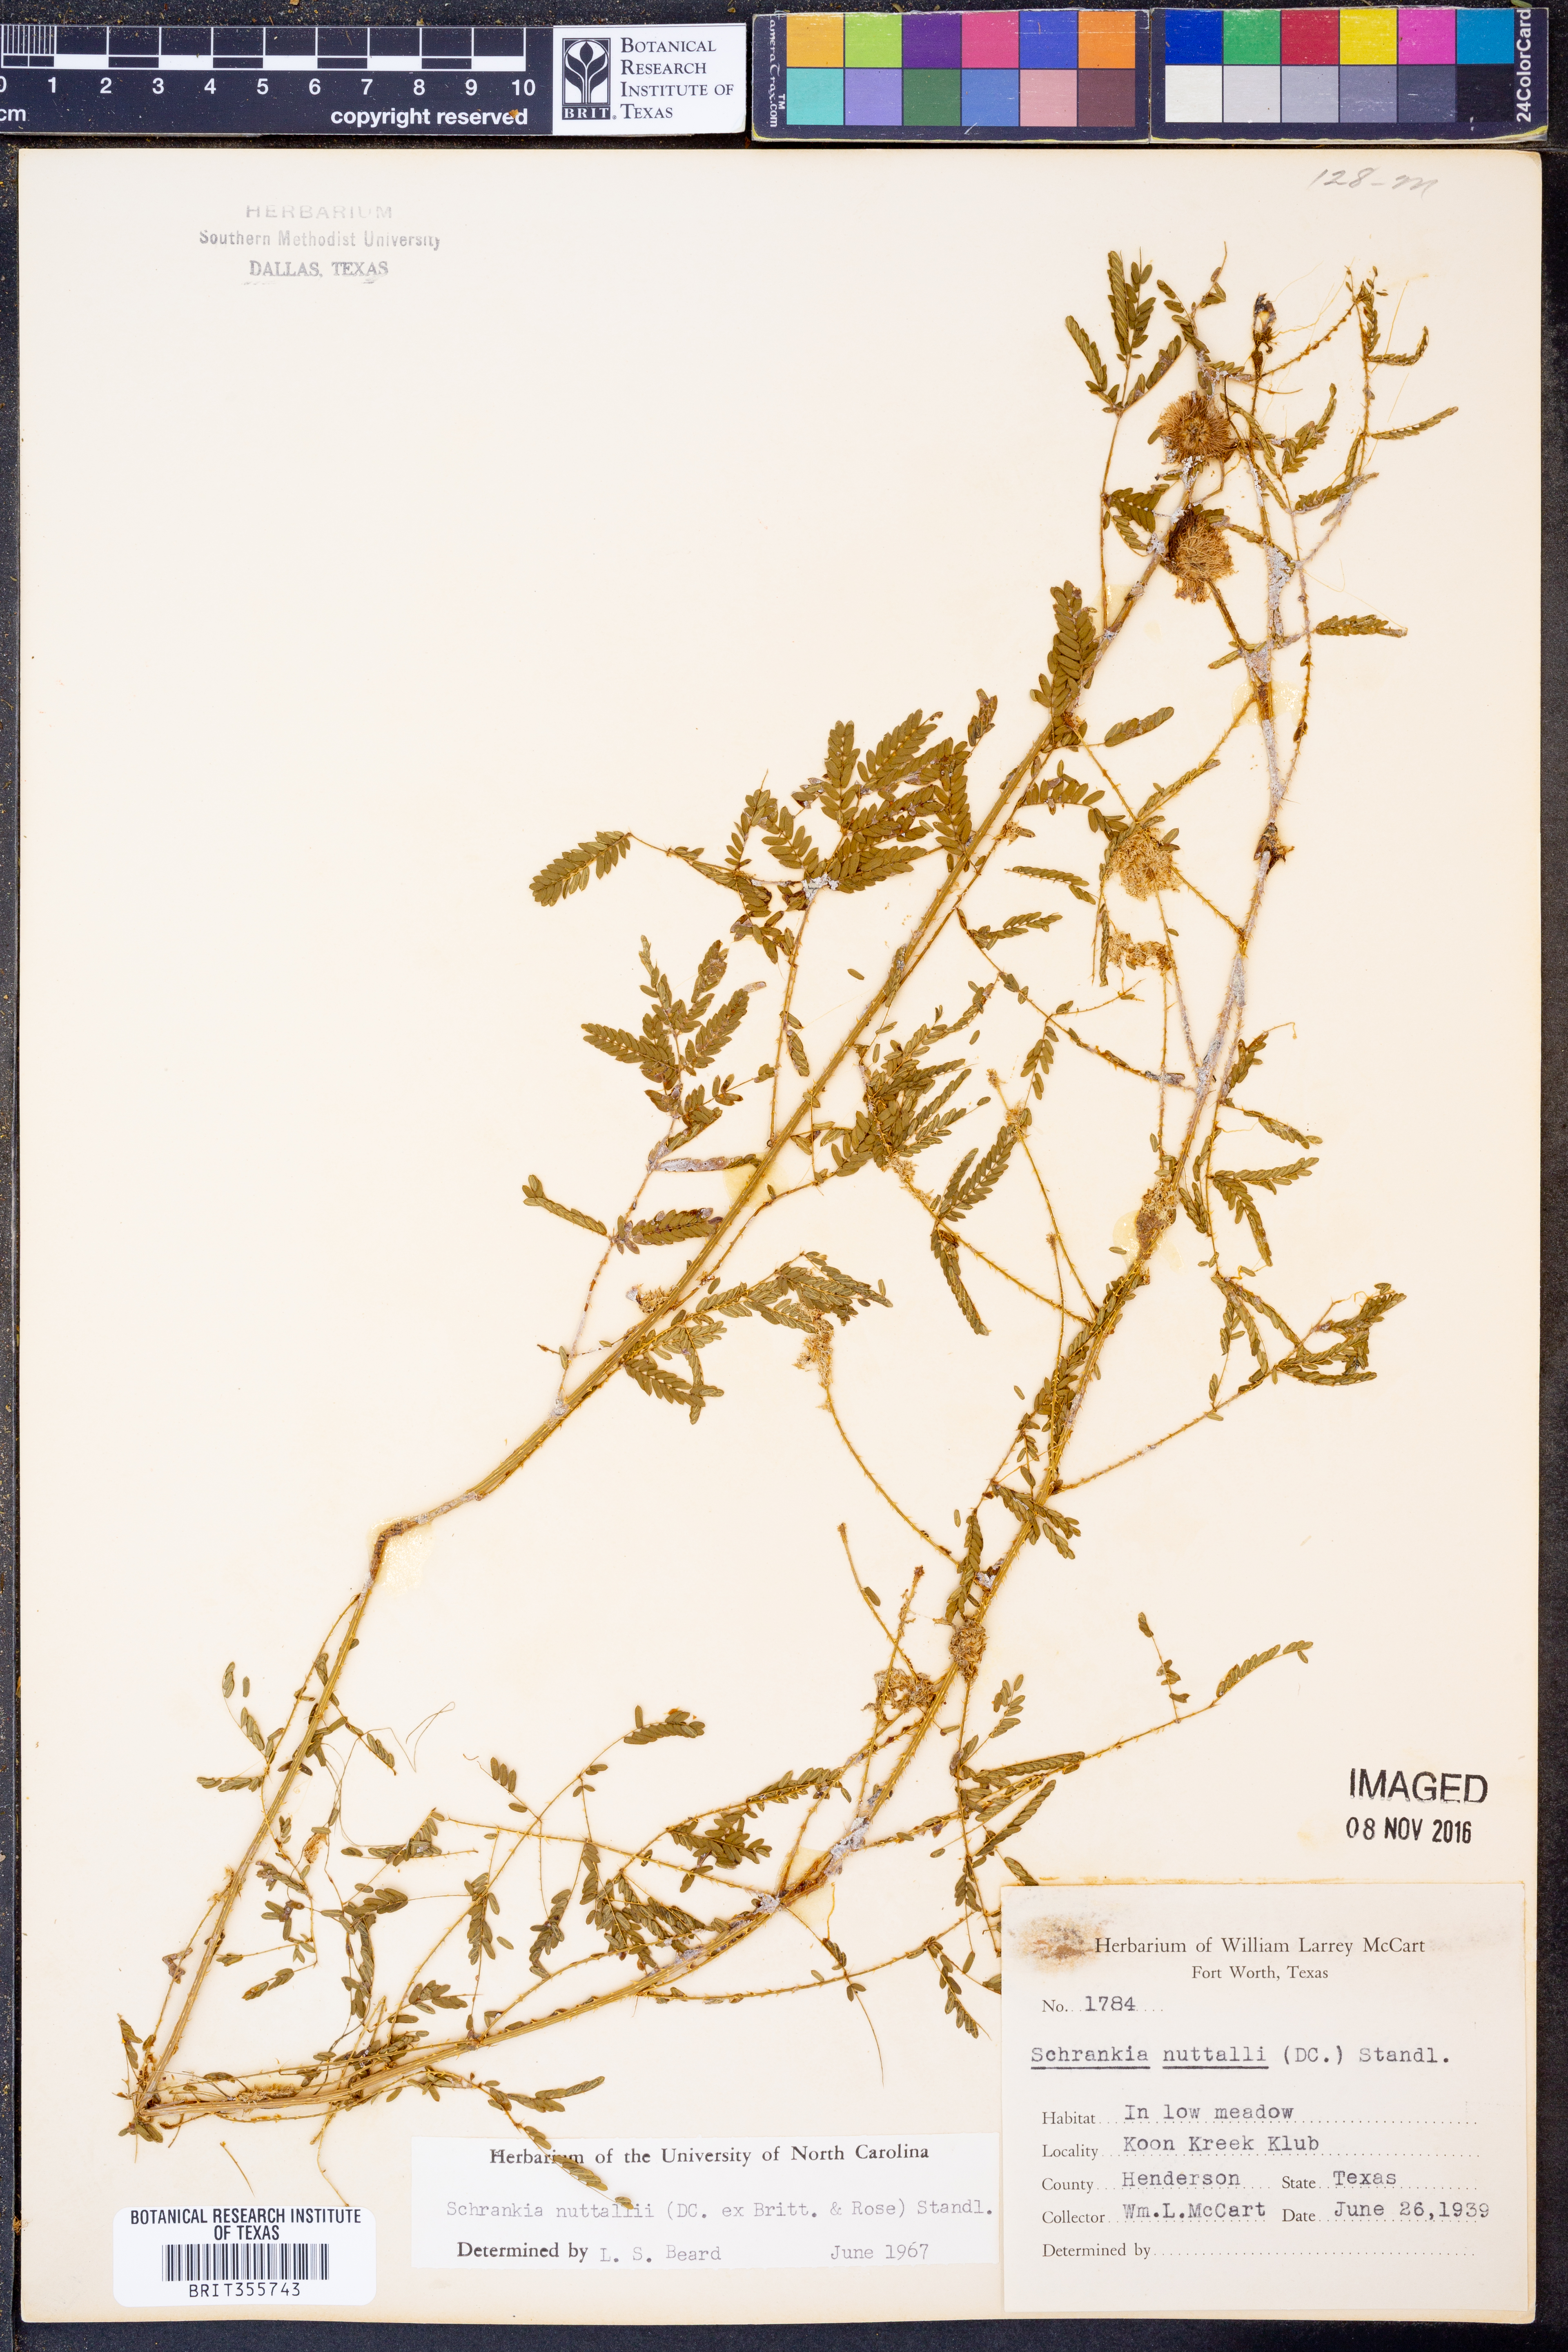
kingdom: Plantae
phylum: Tracheophyta
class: Magnoliopsida
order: Fabales
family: Fabaceae
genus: Mimosa
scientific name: Mimosa quadrivalvis
